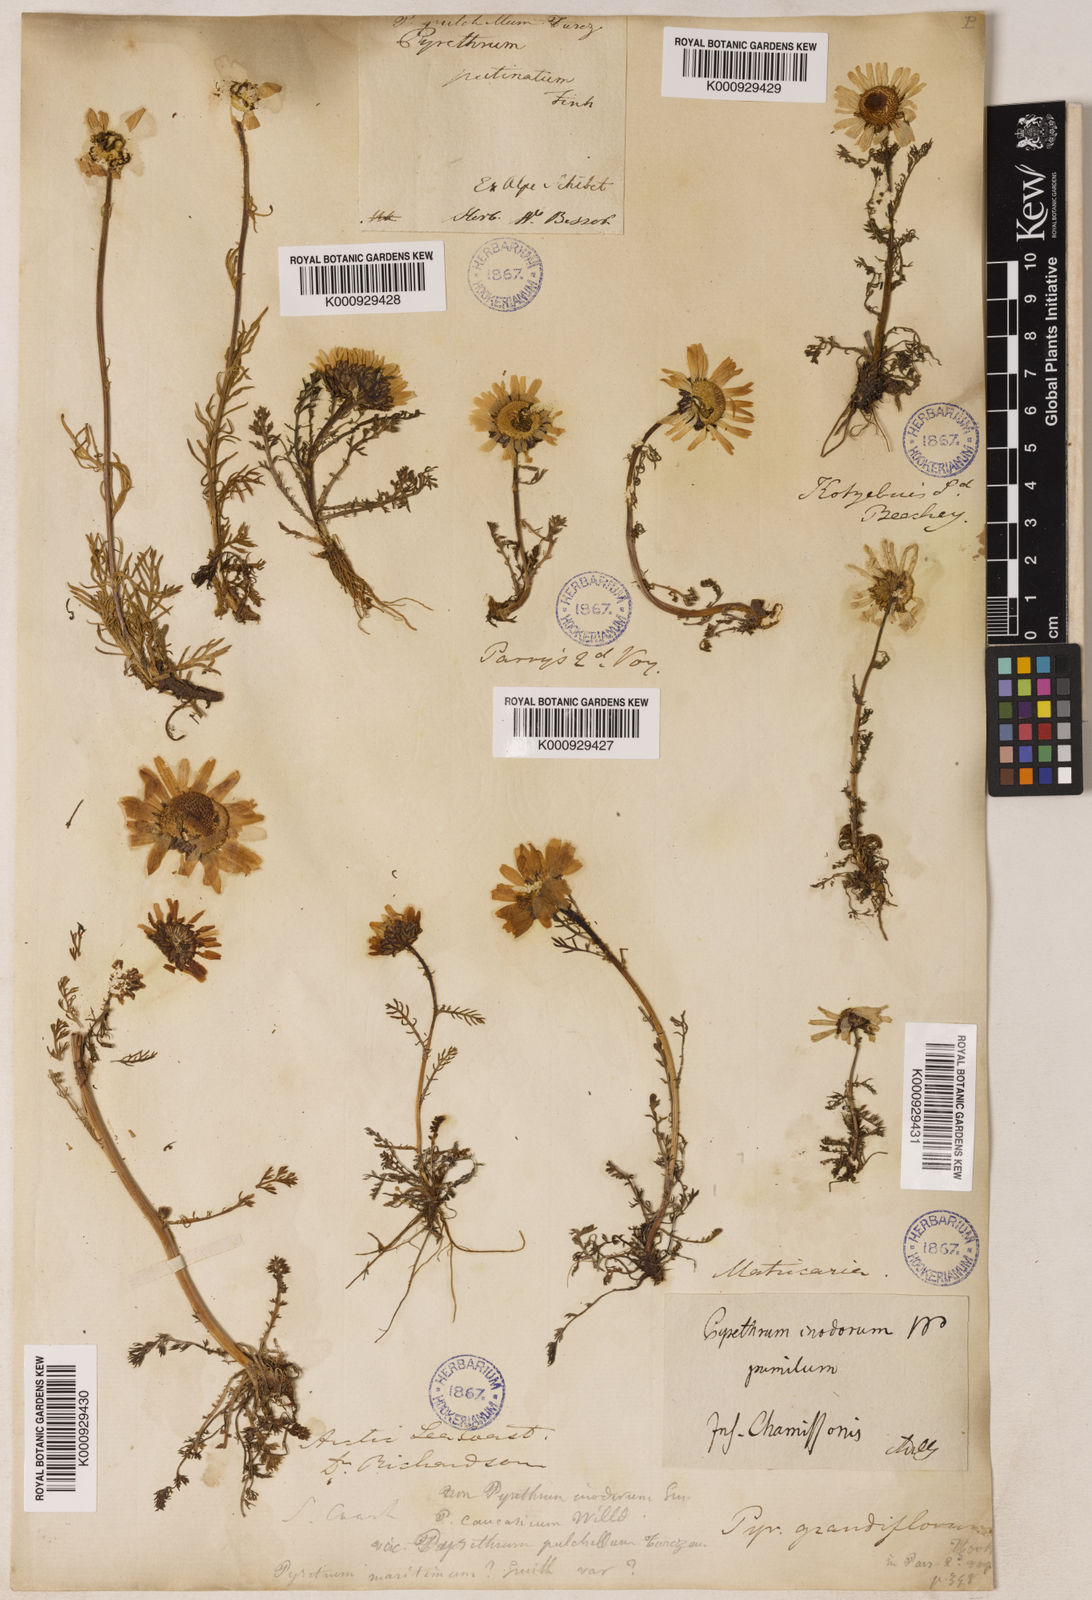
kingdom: Plantae
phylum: Tracheophyta
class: Magnoliopsida
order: Asterales
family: Asteraceae
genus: Tripleurospermum
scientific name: Tripleurospermum
